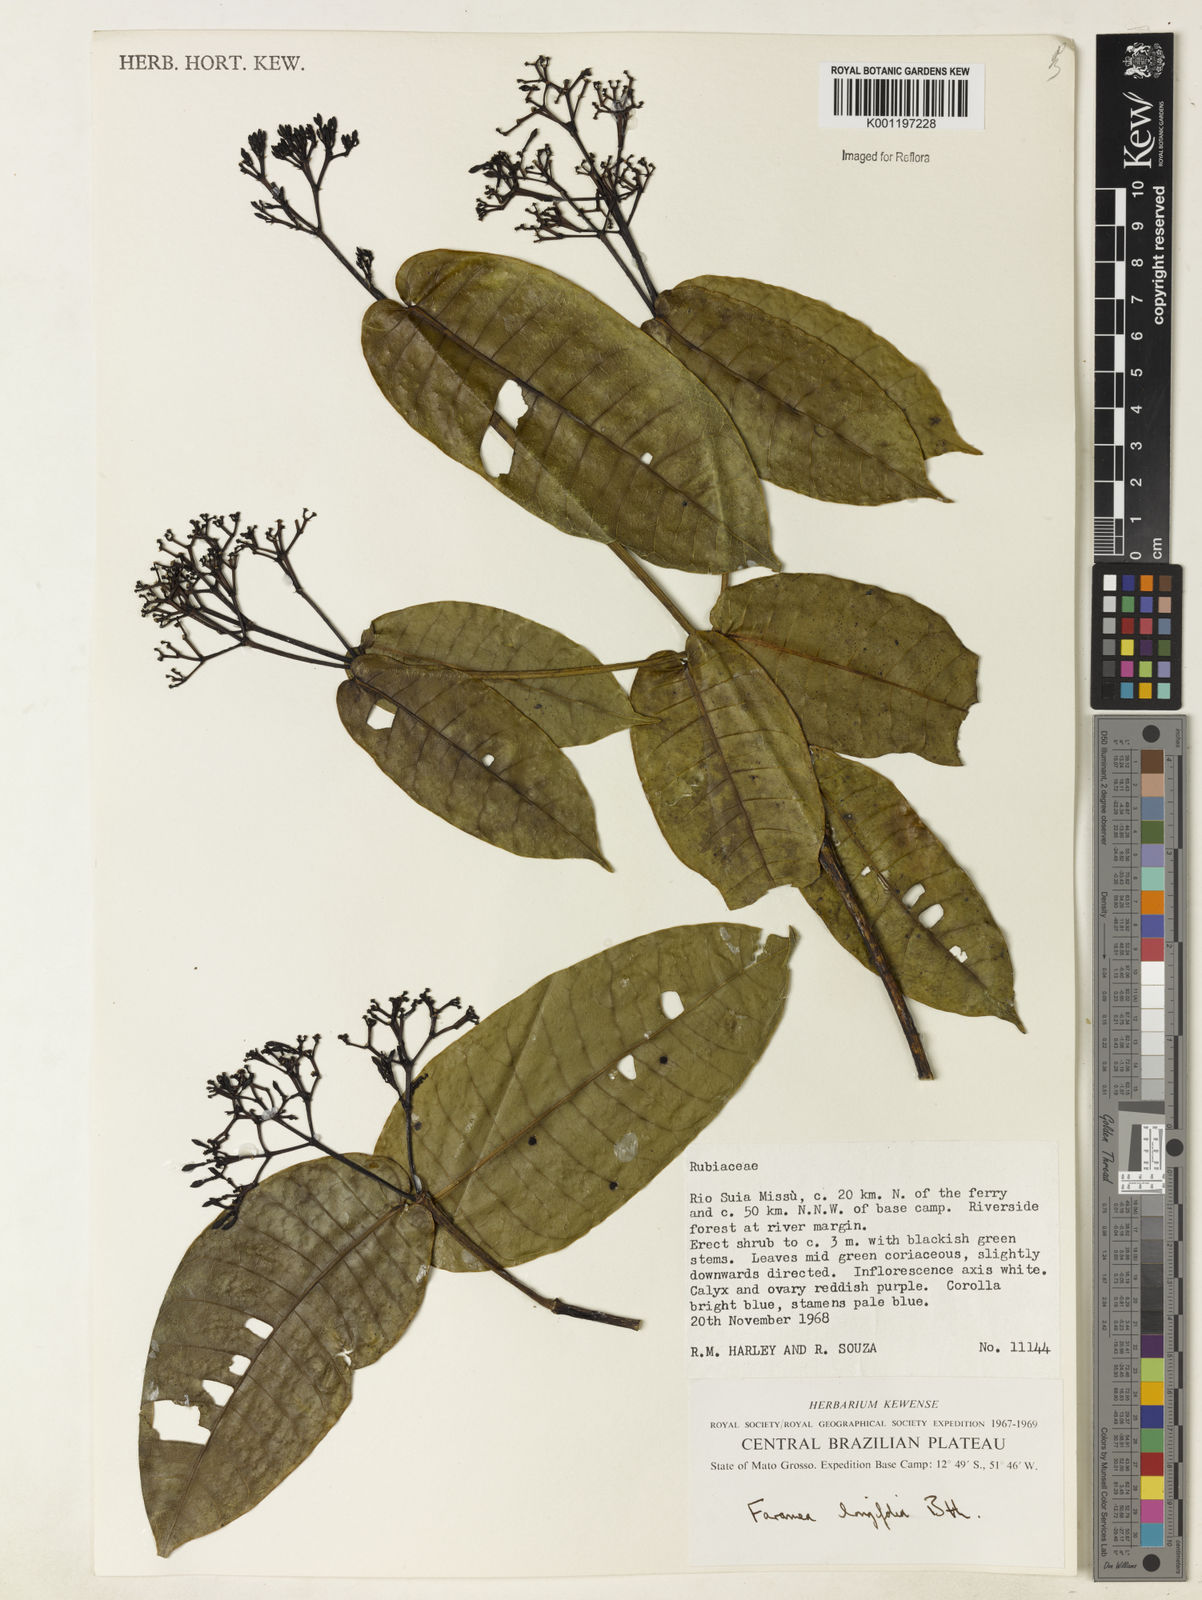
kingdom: Plantae
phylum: Tracheophyta
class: Magnoliopsida
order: Gentianales
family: Rubiaceae
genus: Faramea
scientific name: Faramea sessilifolia
